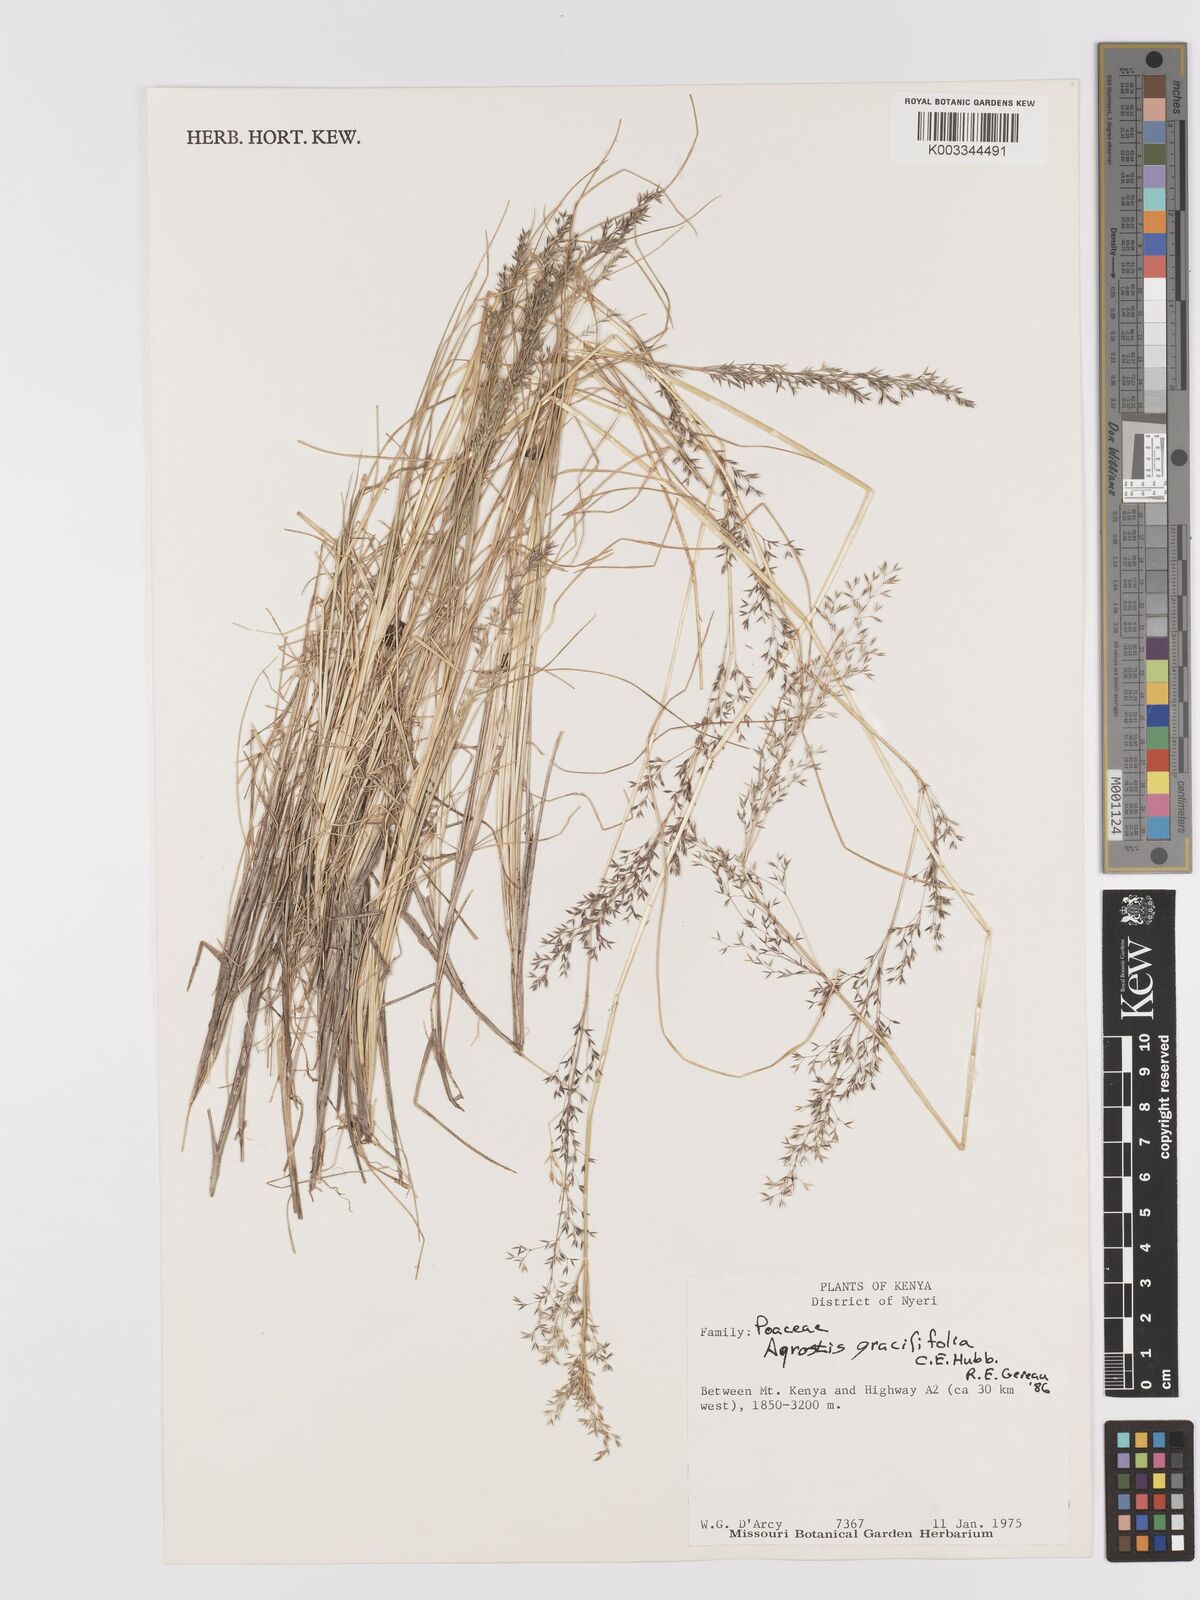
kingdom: Plantae
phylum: Tracheophyta
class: Liliopsida
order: Poales
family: Poaceae
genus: Agrostis
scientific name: Agrostis gracilifolia
